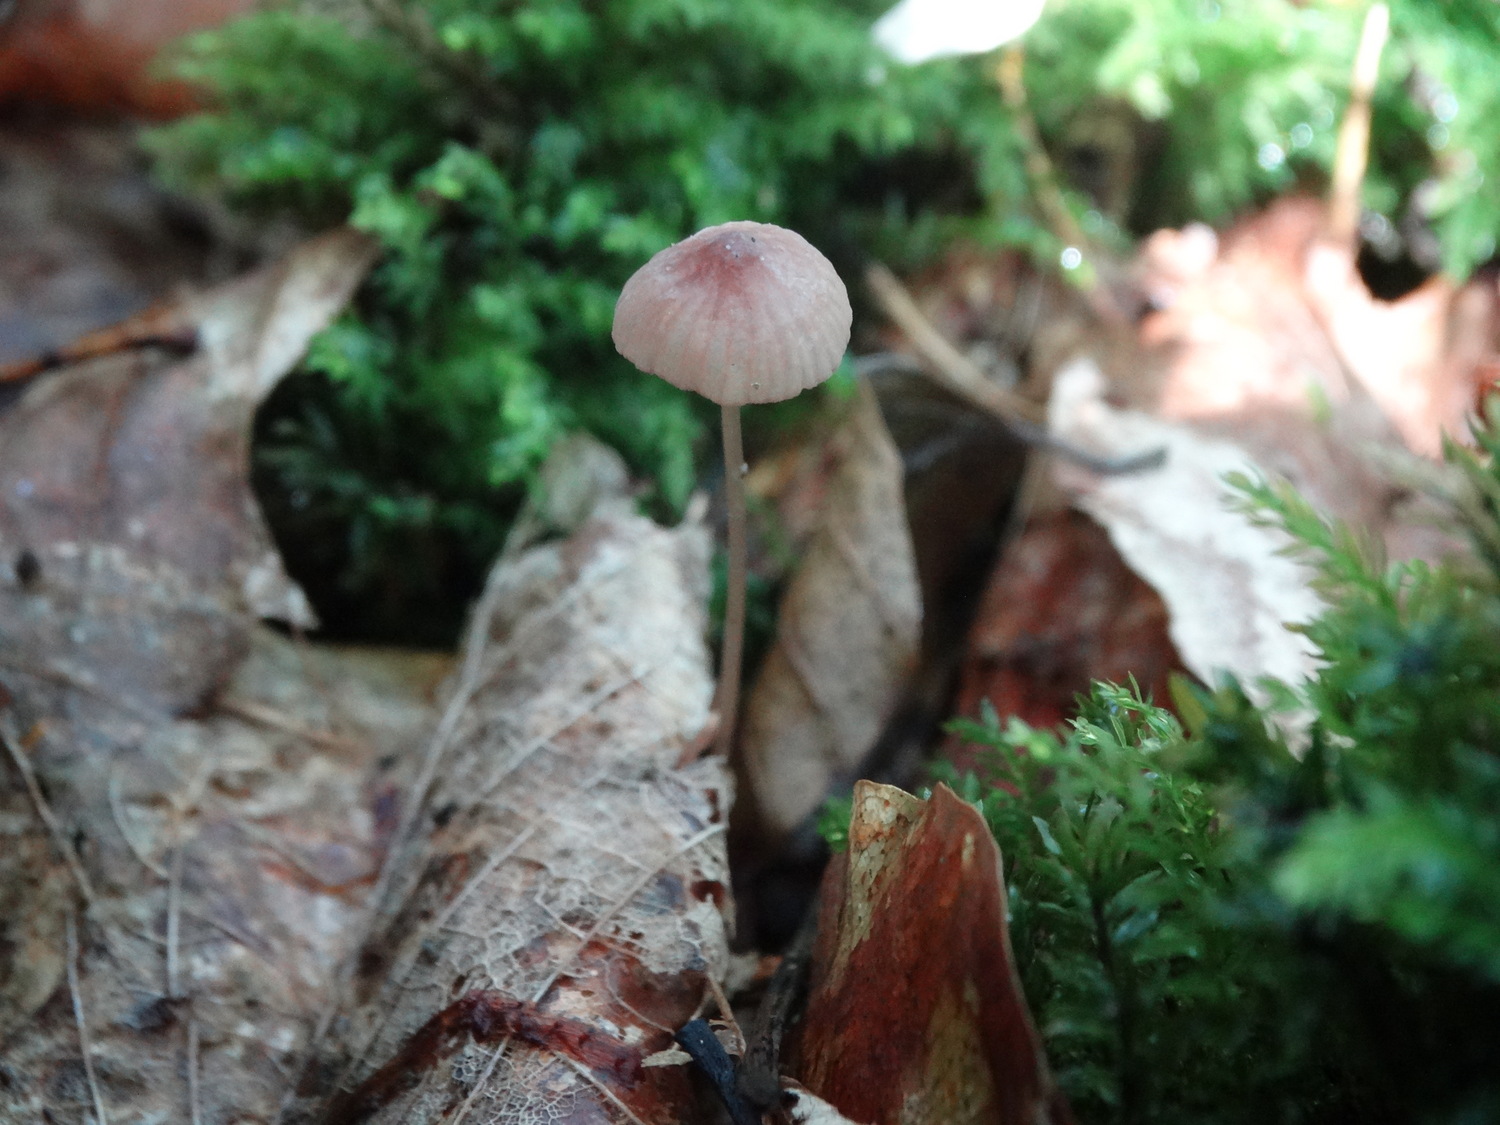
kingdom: Fungi
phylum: Basidiomycota
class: Agaricomycetes
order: Agaricales
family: Mycenaceae
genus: Mycena
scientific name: Mycena sanguinolenta
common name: rødmælket huesvamp
